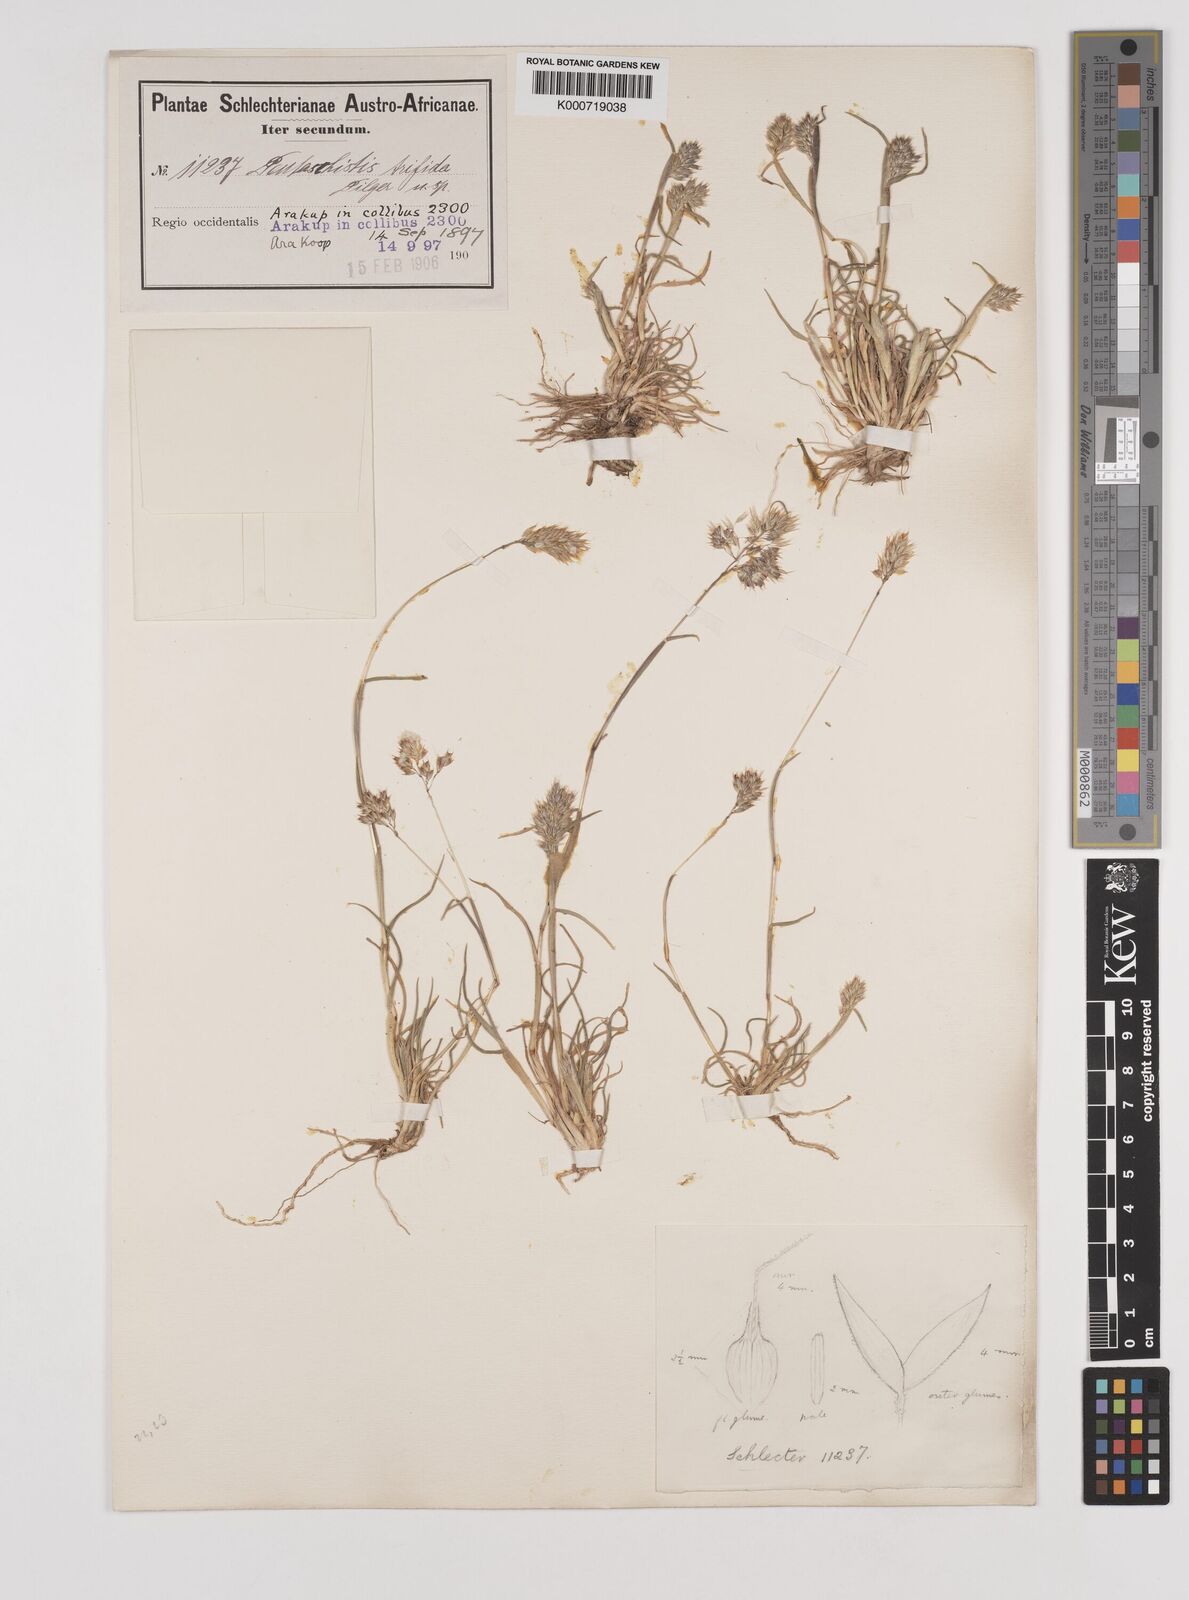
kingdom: Plantae
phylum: Tracheophyta
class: Liliopsida
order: Poales
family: Poaceae
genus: Pentameris
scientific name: Pentameris pallida
